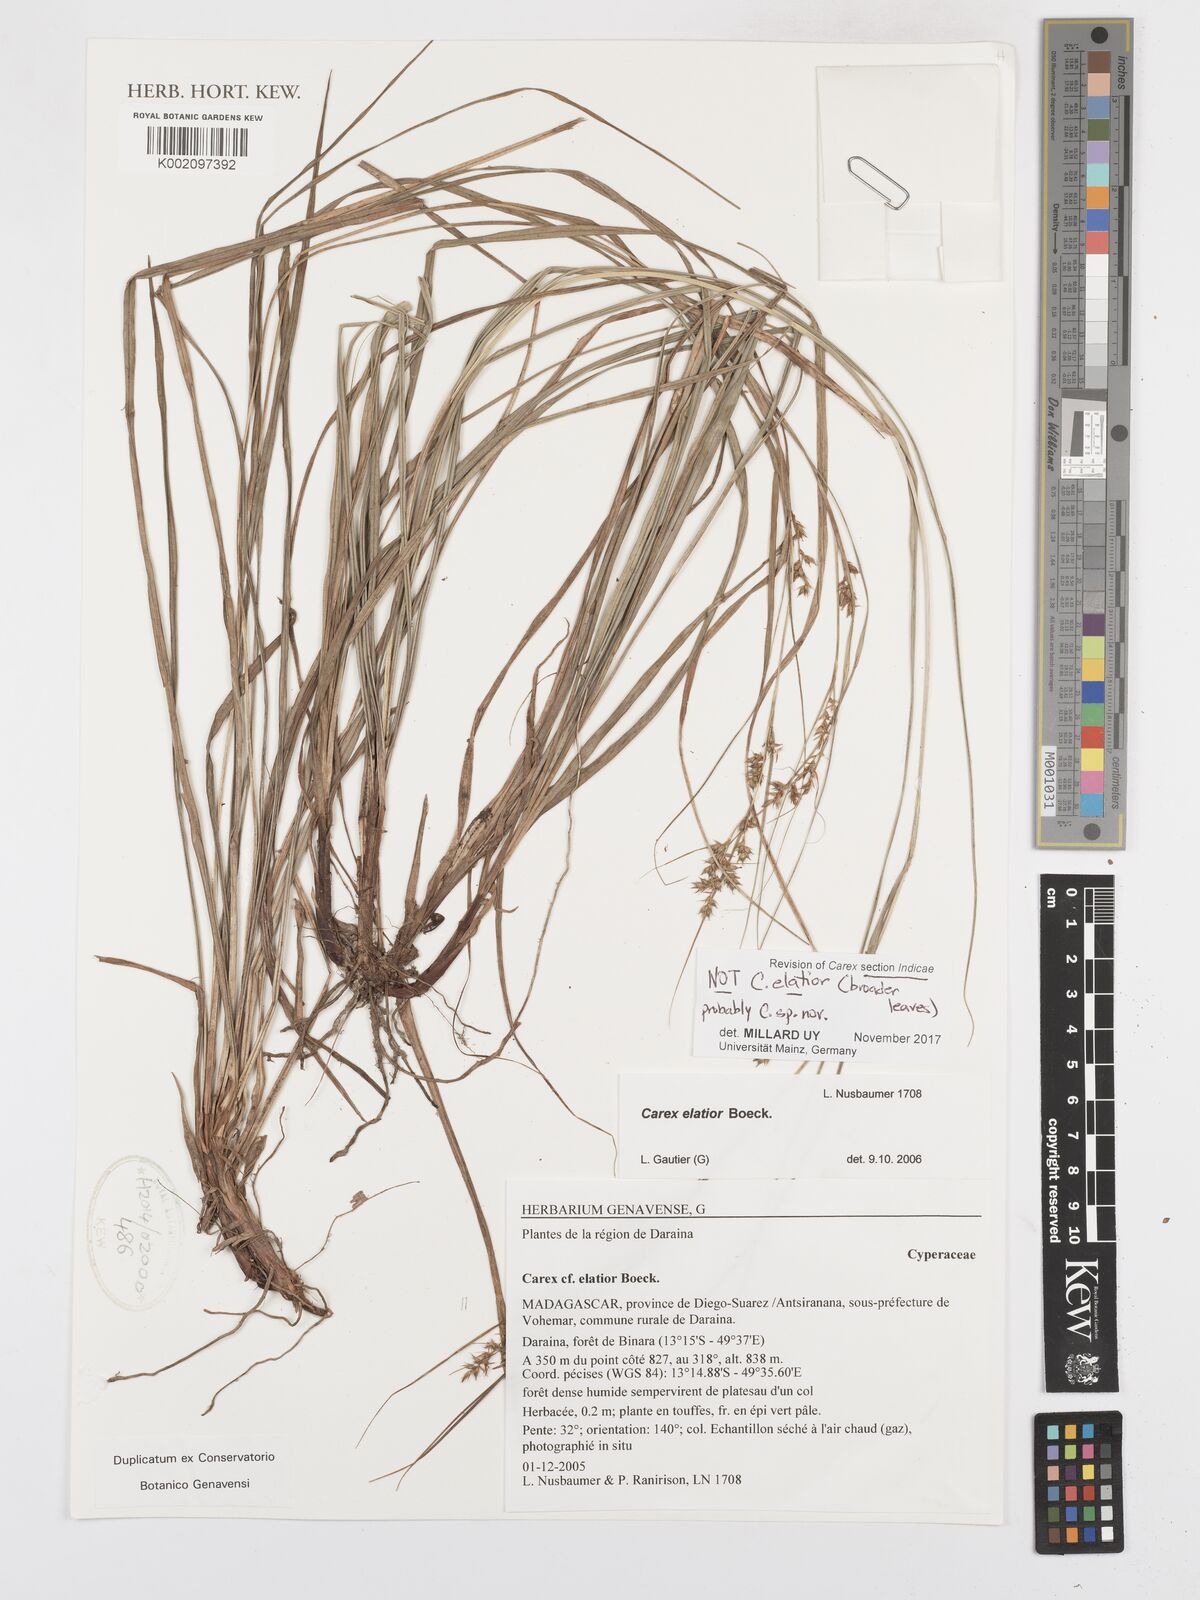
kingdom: Plantae
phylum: Tracheophyta
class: Liliopsida
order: Poales
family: Cyperaceae
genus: Carex
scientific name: Carex
